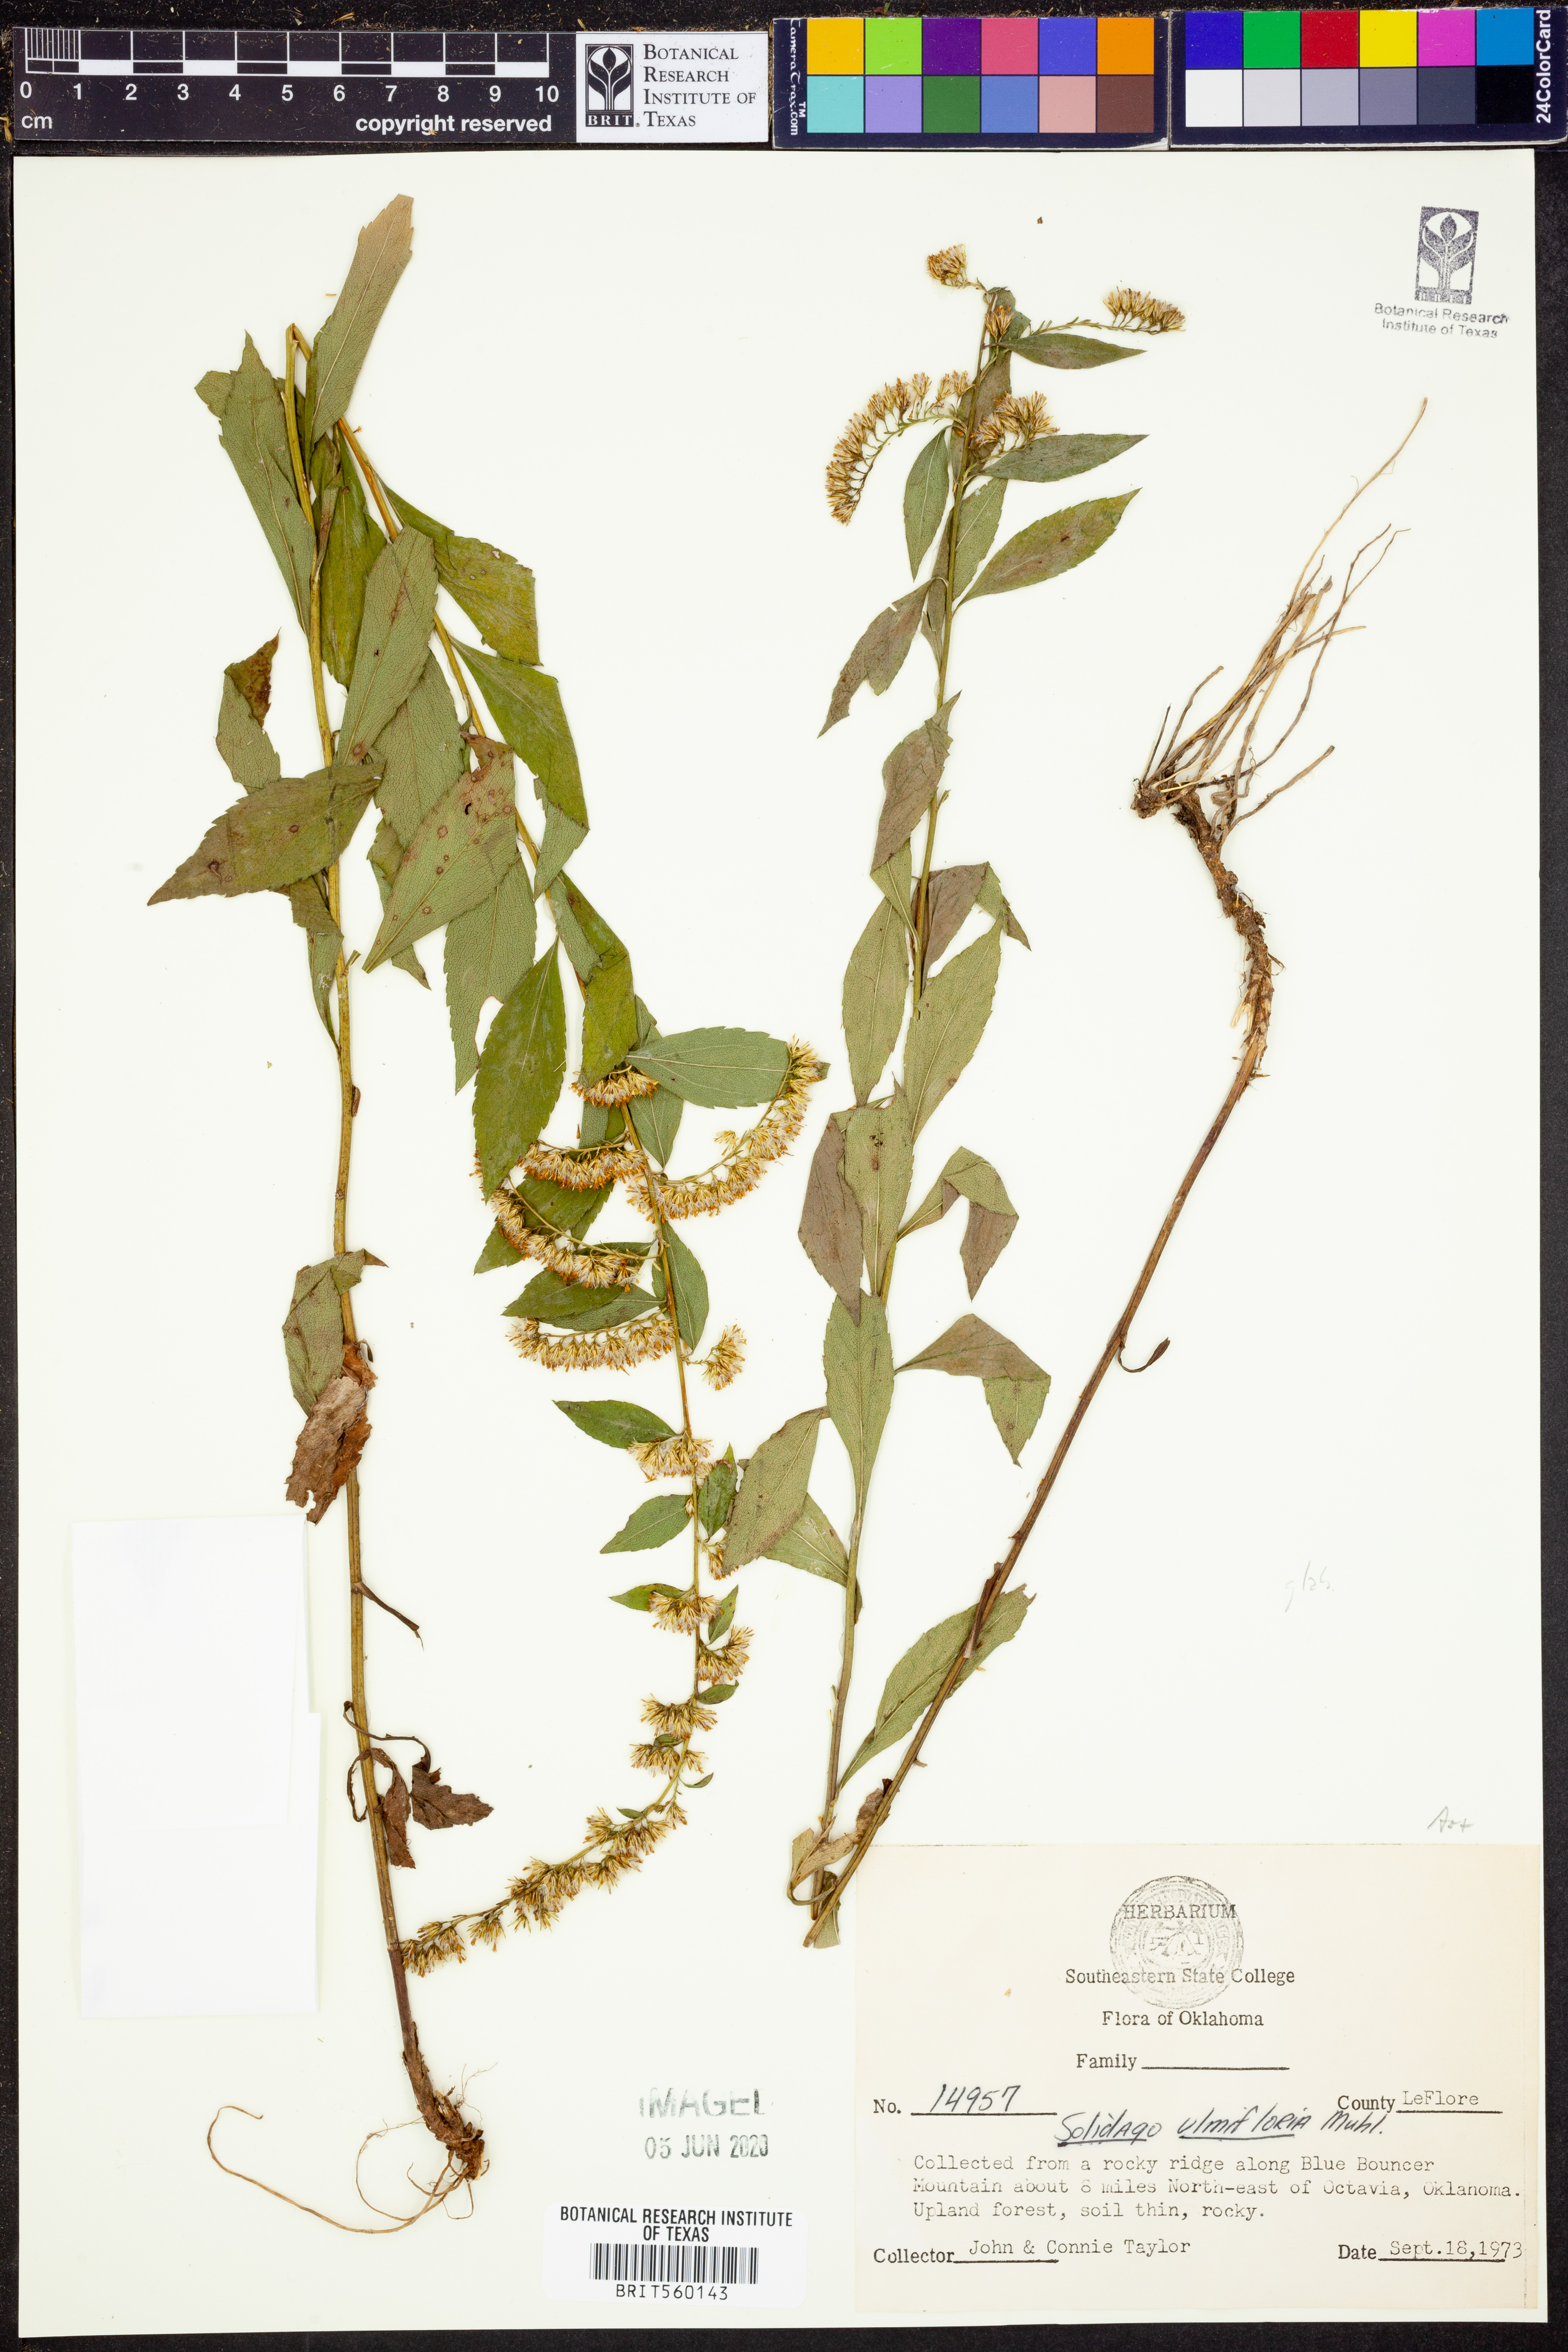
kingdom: Plantae
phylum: Tracheophyta
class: Magnoliopsida
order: Asterales
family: Asteraceae
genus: Solidago
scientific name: Solidago ulmifolia
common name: Elm-leaf goldenrod
